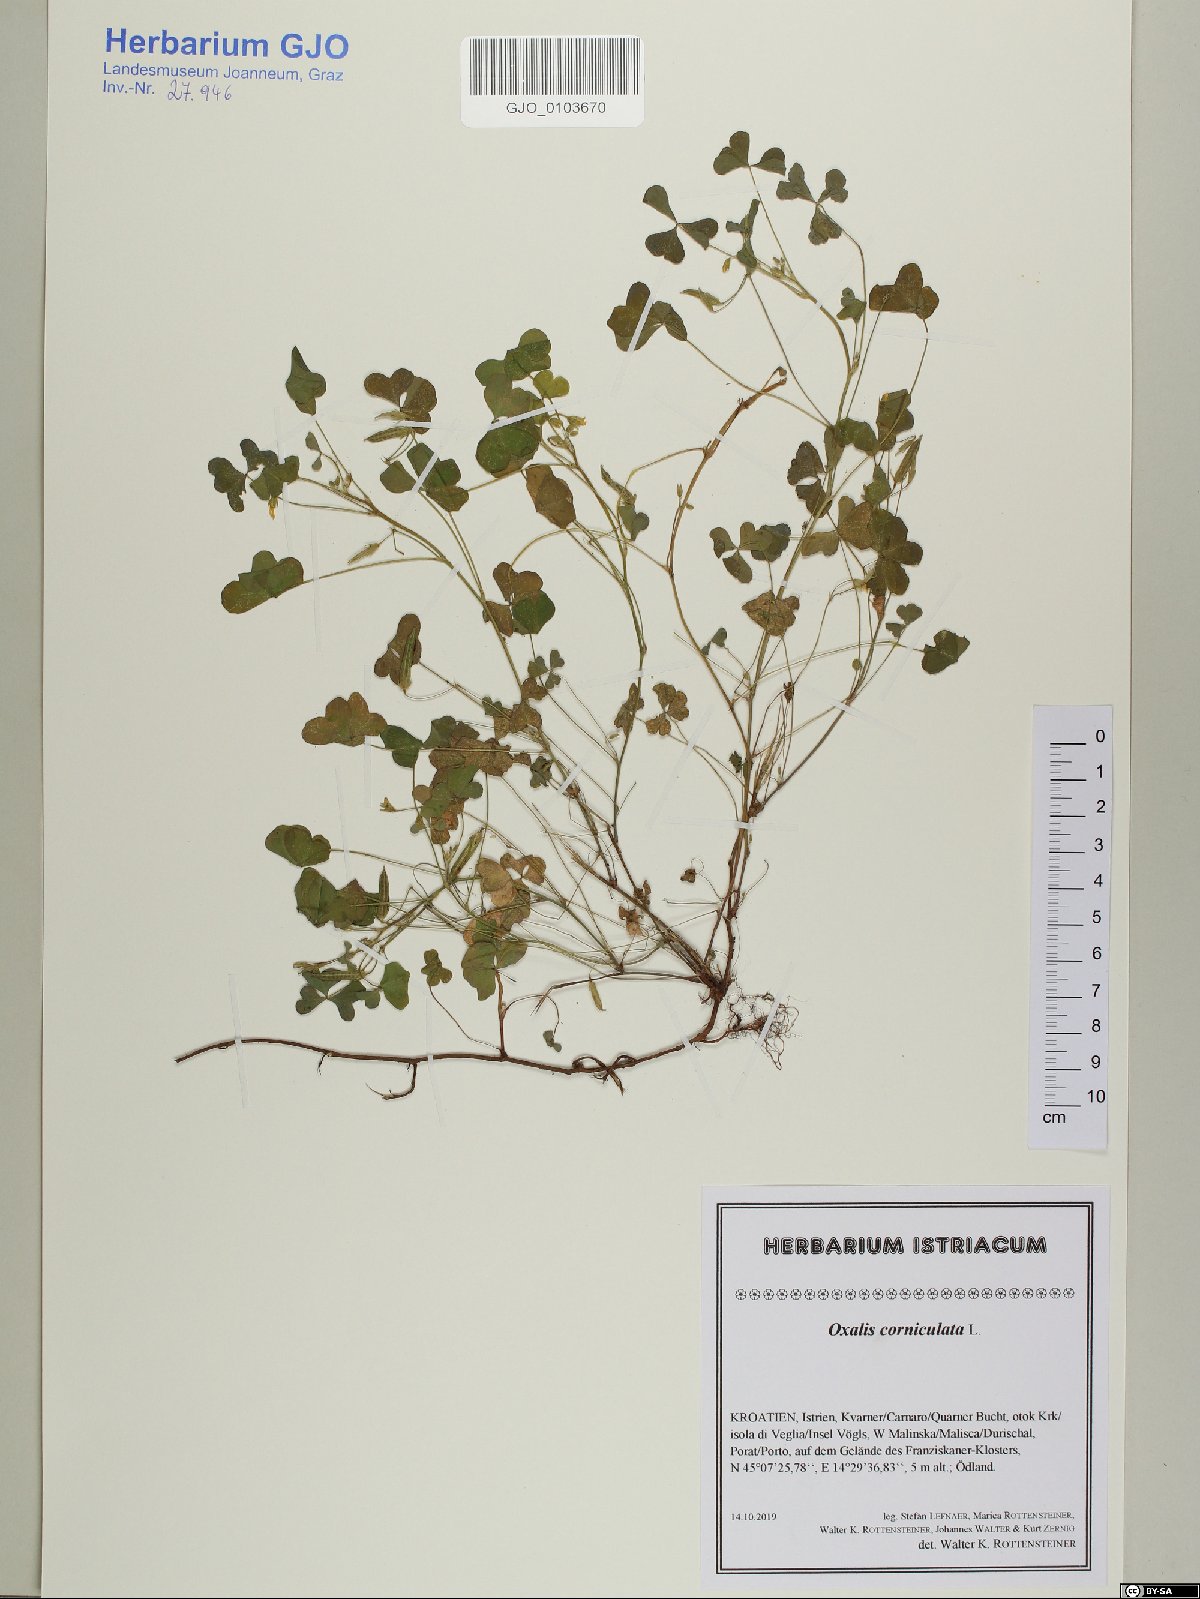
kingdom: Plantae
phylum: Tracheophyta
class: Magnoliopsida
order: Oxalidales
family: Oxalidaceae
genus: Oxalis
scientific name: Oxalis corniculata
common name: Procumbent yellow-sorrel
